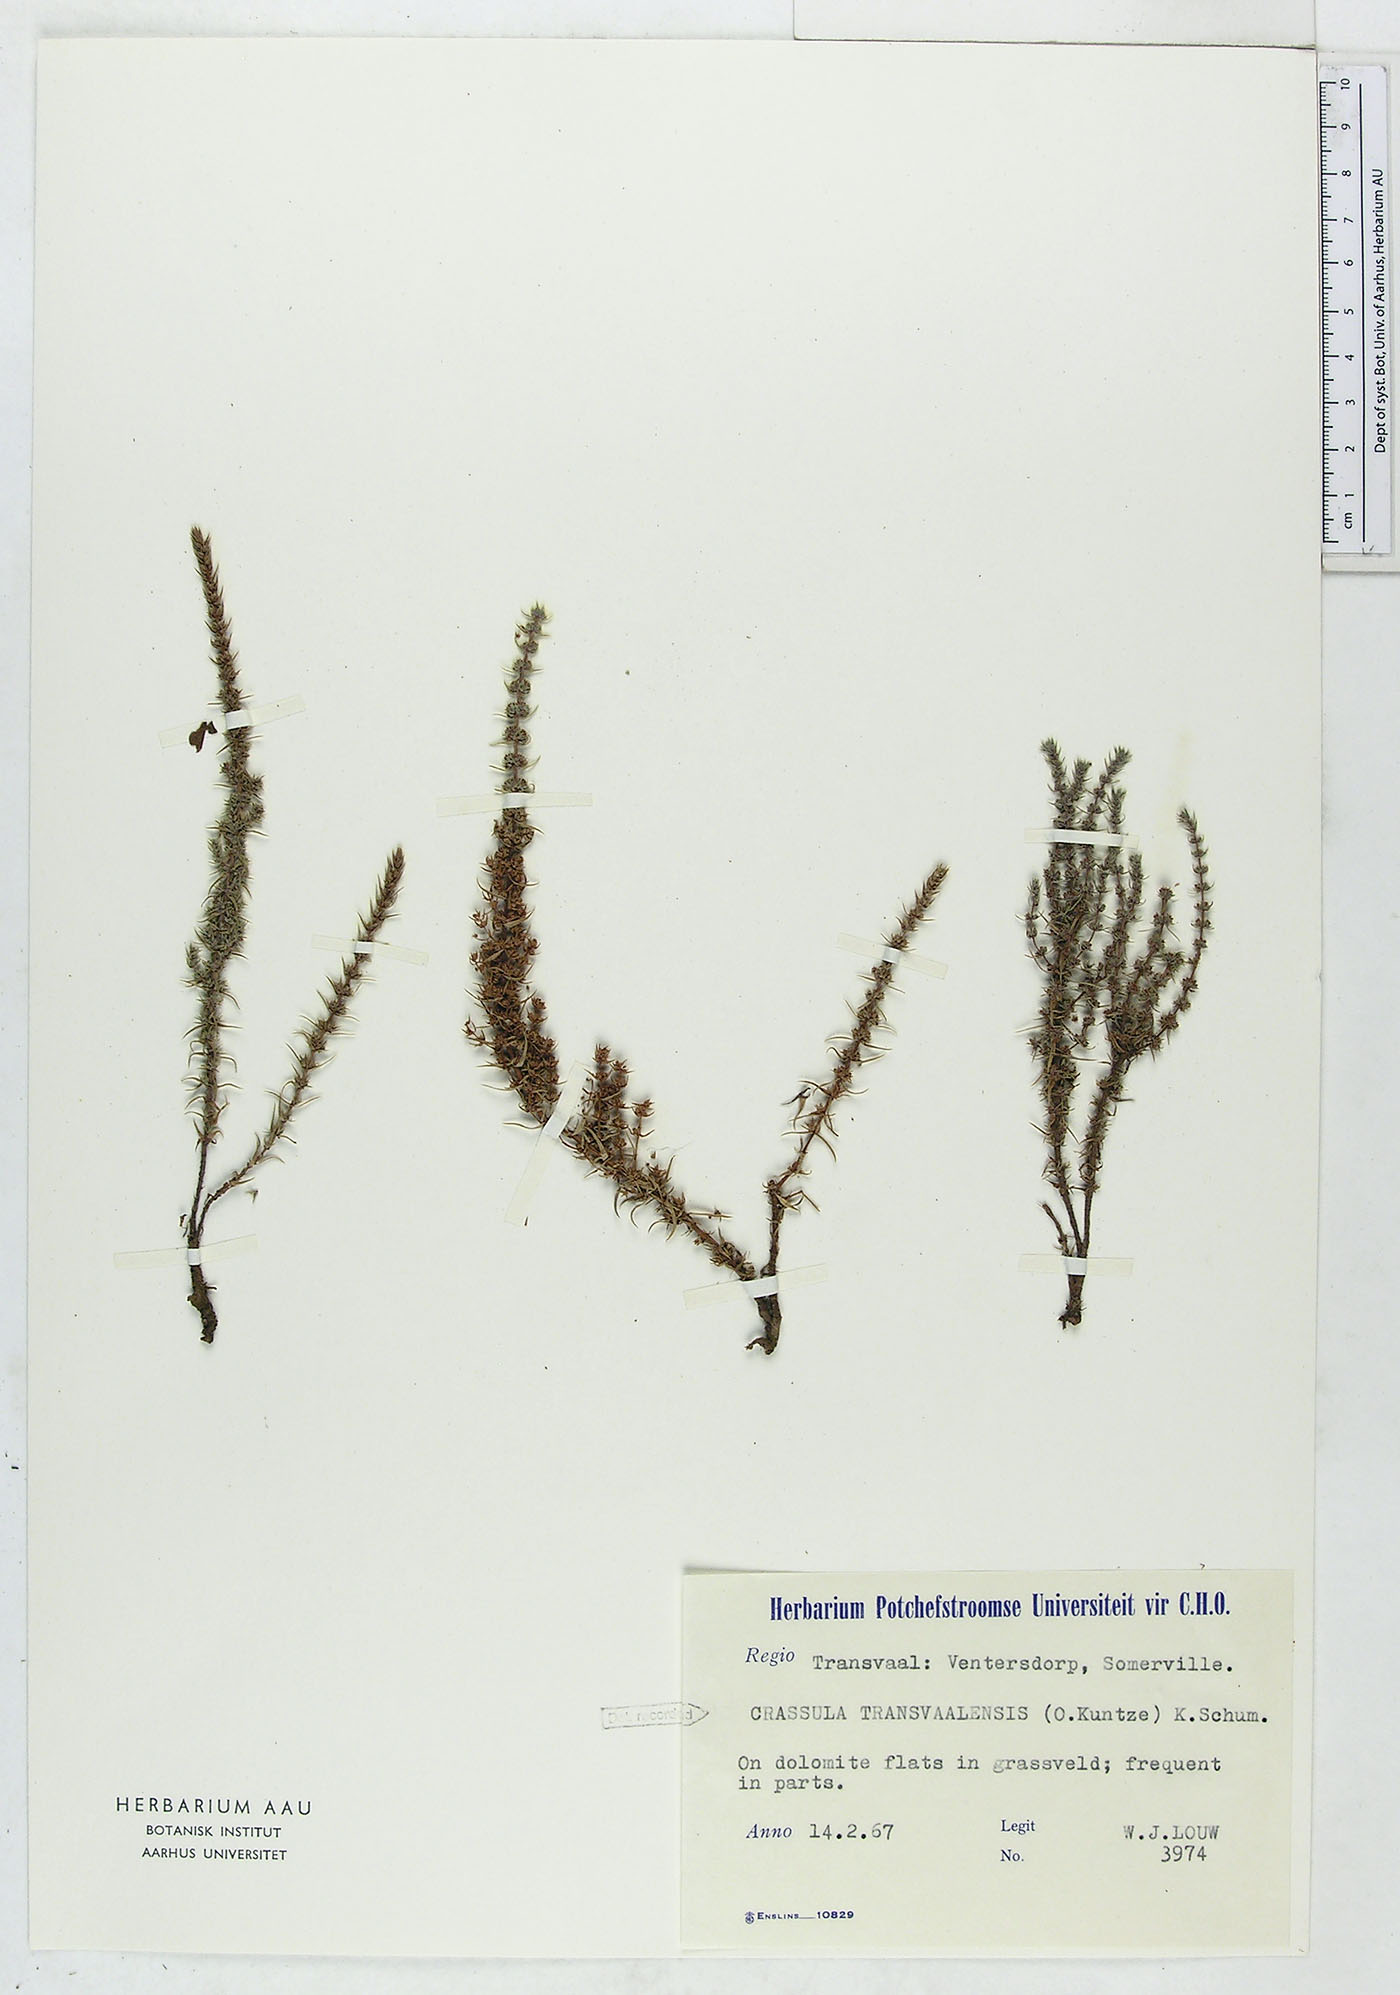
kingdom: Plantae
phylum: Tracheophyta
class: Magnoliopsida
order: Saxifragales
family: Crassulaceae
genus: Crassula
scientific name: Crassula lanceolata
